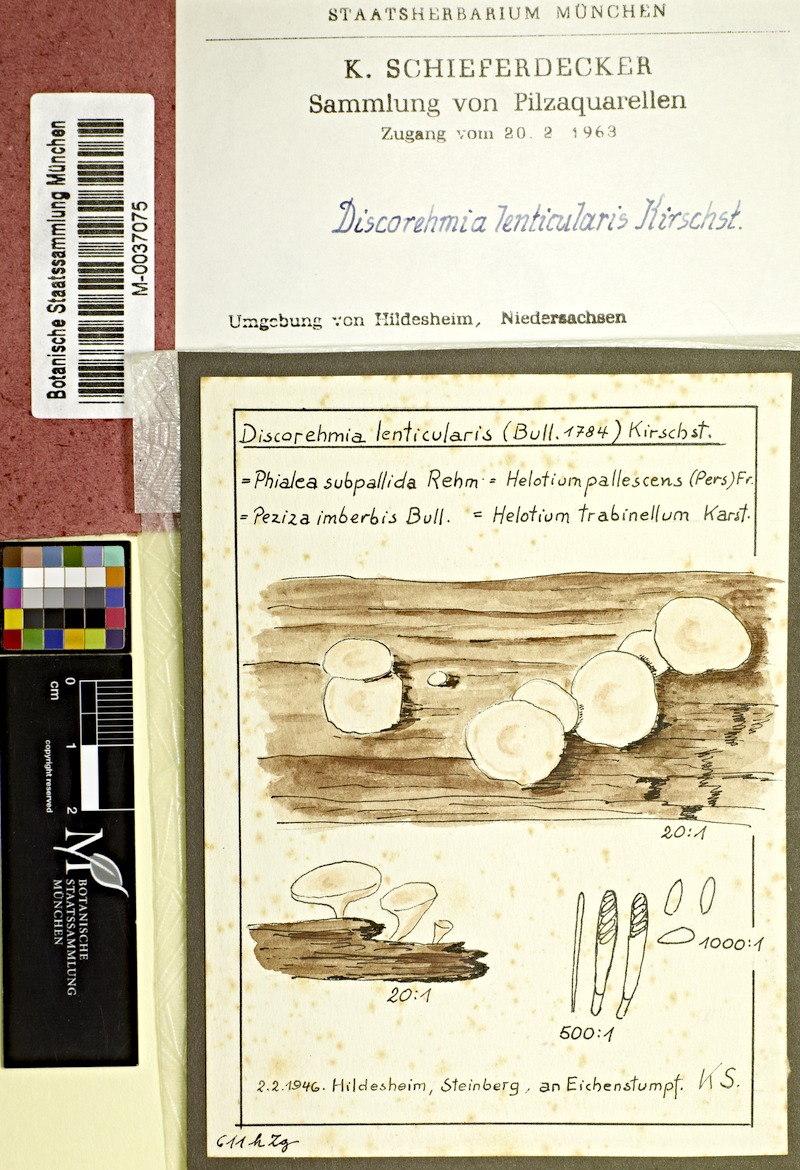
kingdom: Plantae
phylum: Tracheophyta
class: Magnoliopsida
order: Fagales
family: Fagaceae
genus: Quercus
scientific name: Quercus
